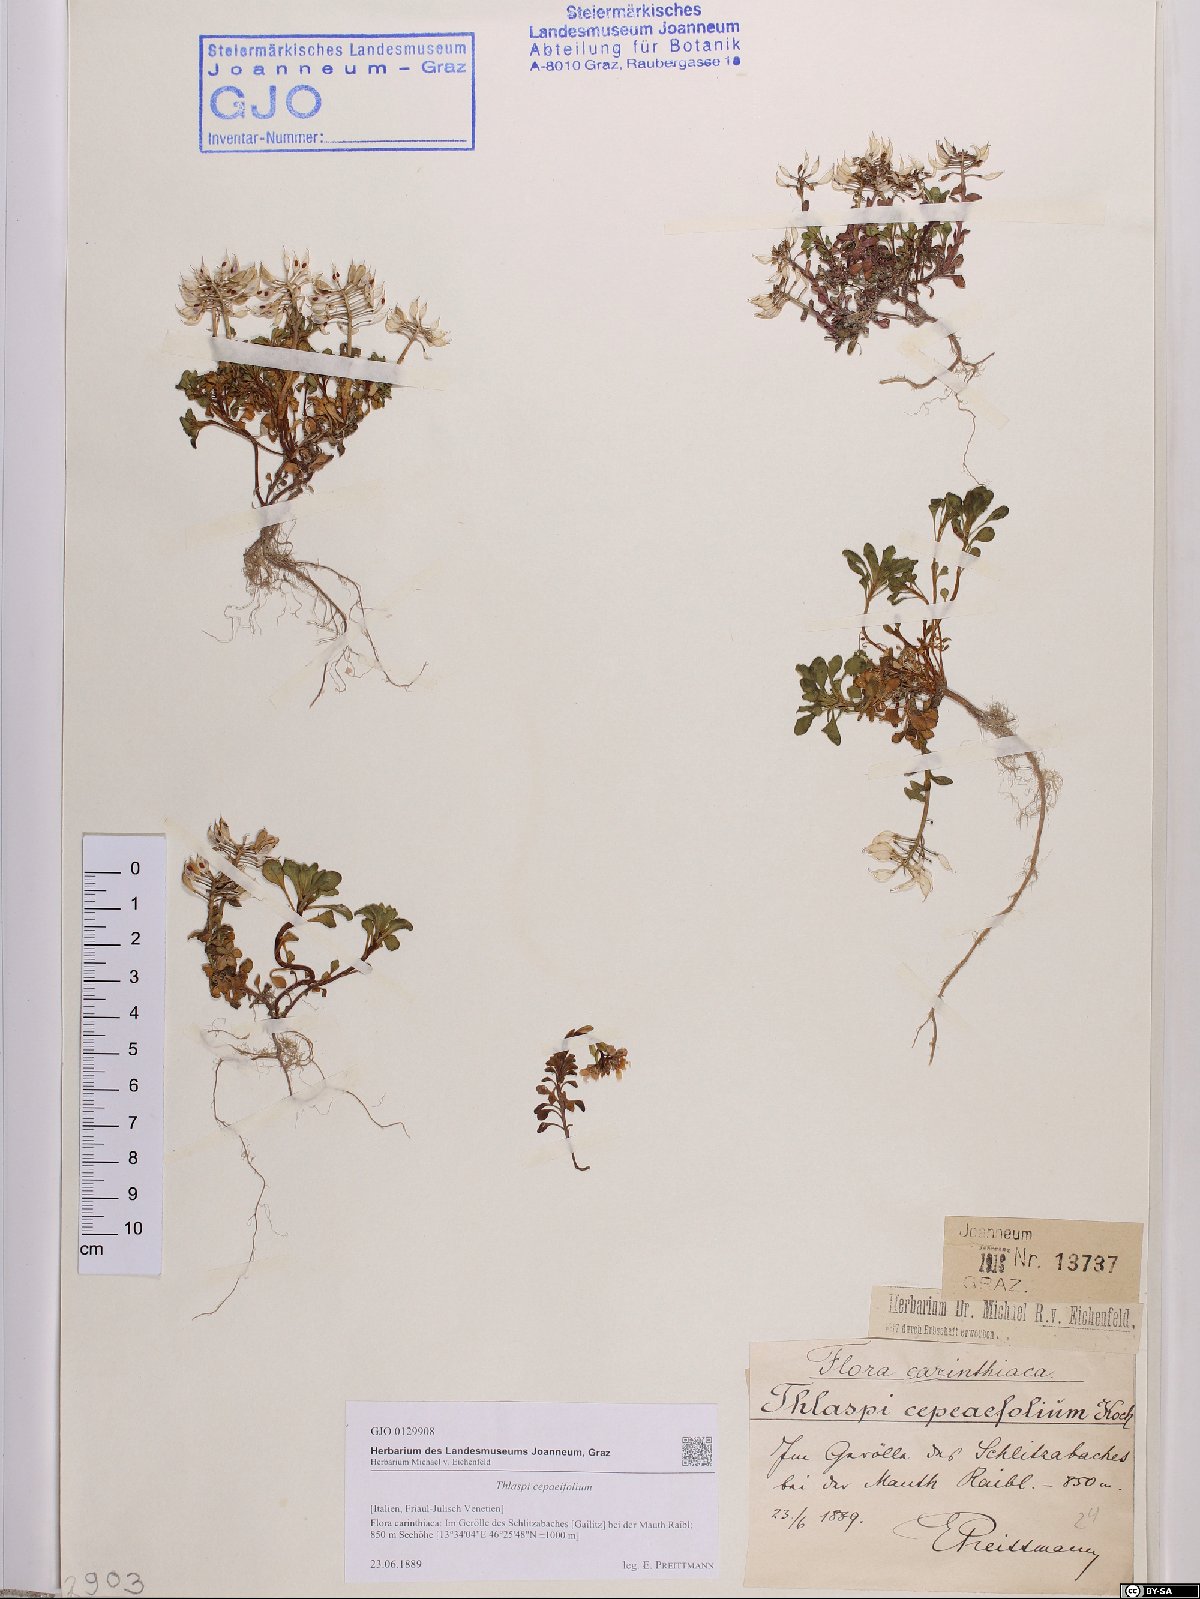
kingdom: Plantae
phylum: Tracheophyta
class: Magnoliopsida
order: Brassicales
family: Brassicaceae
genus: Noccaea
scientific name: Noccaea cepaeifolia
